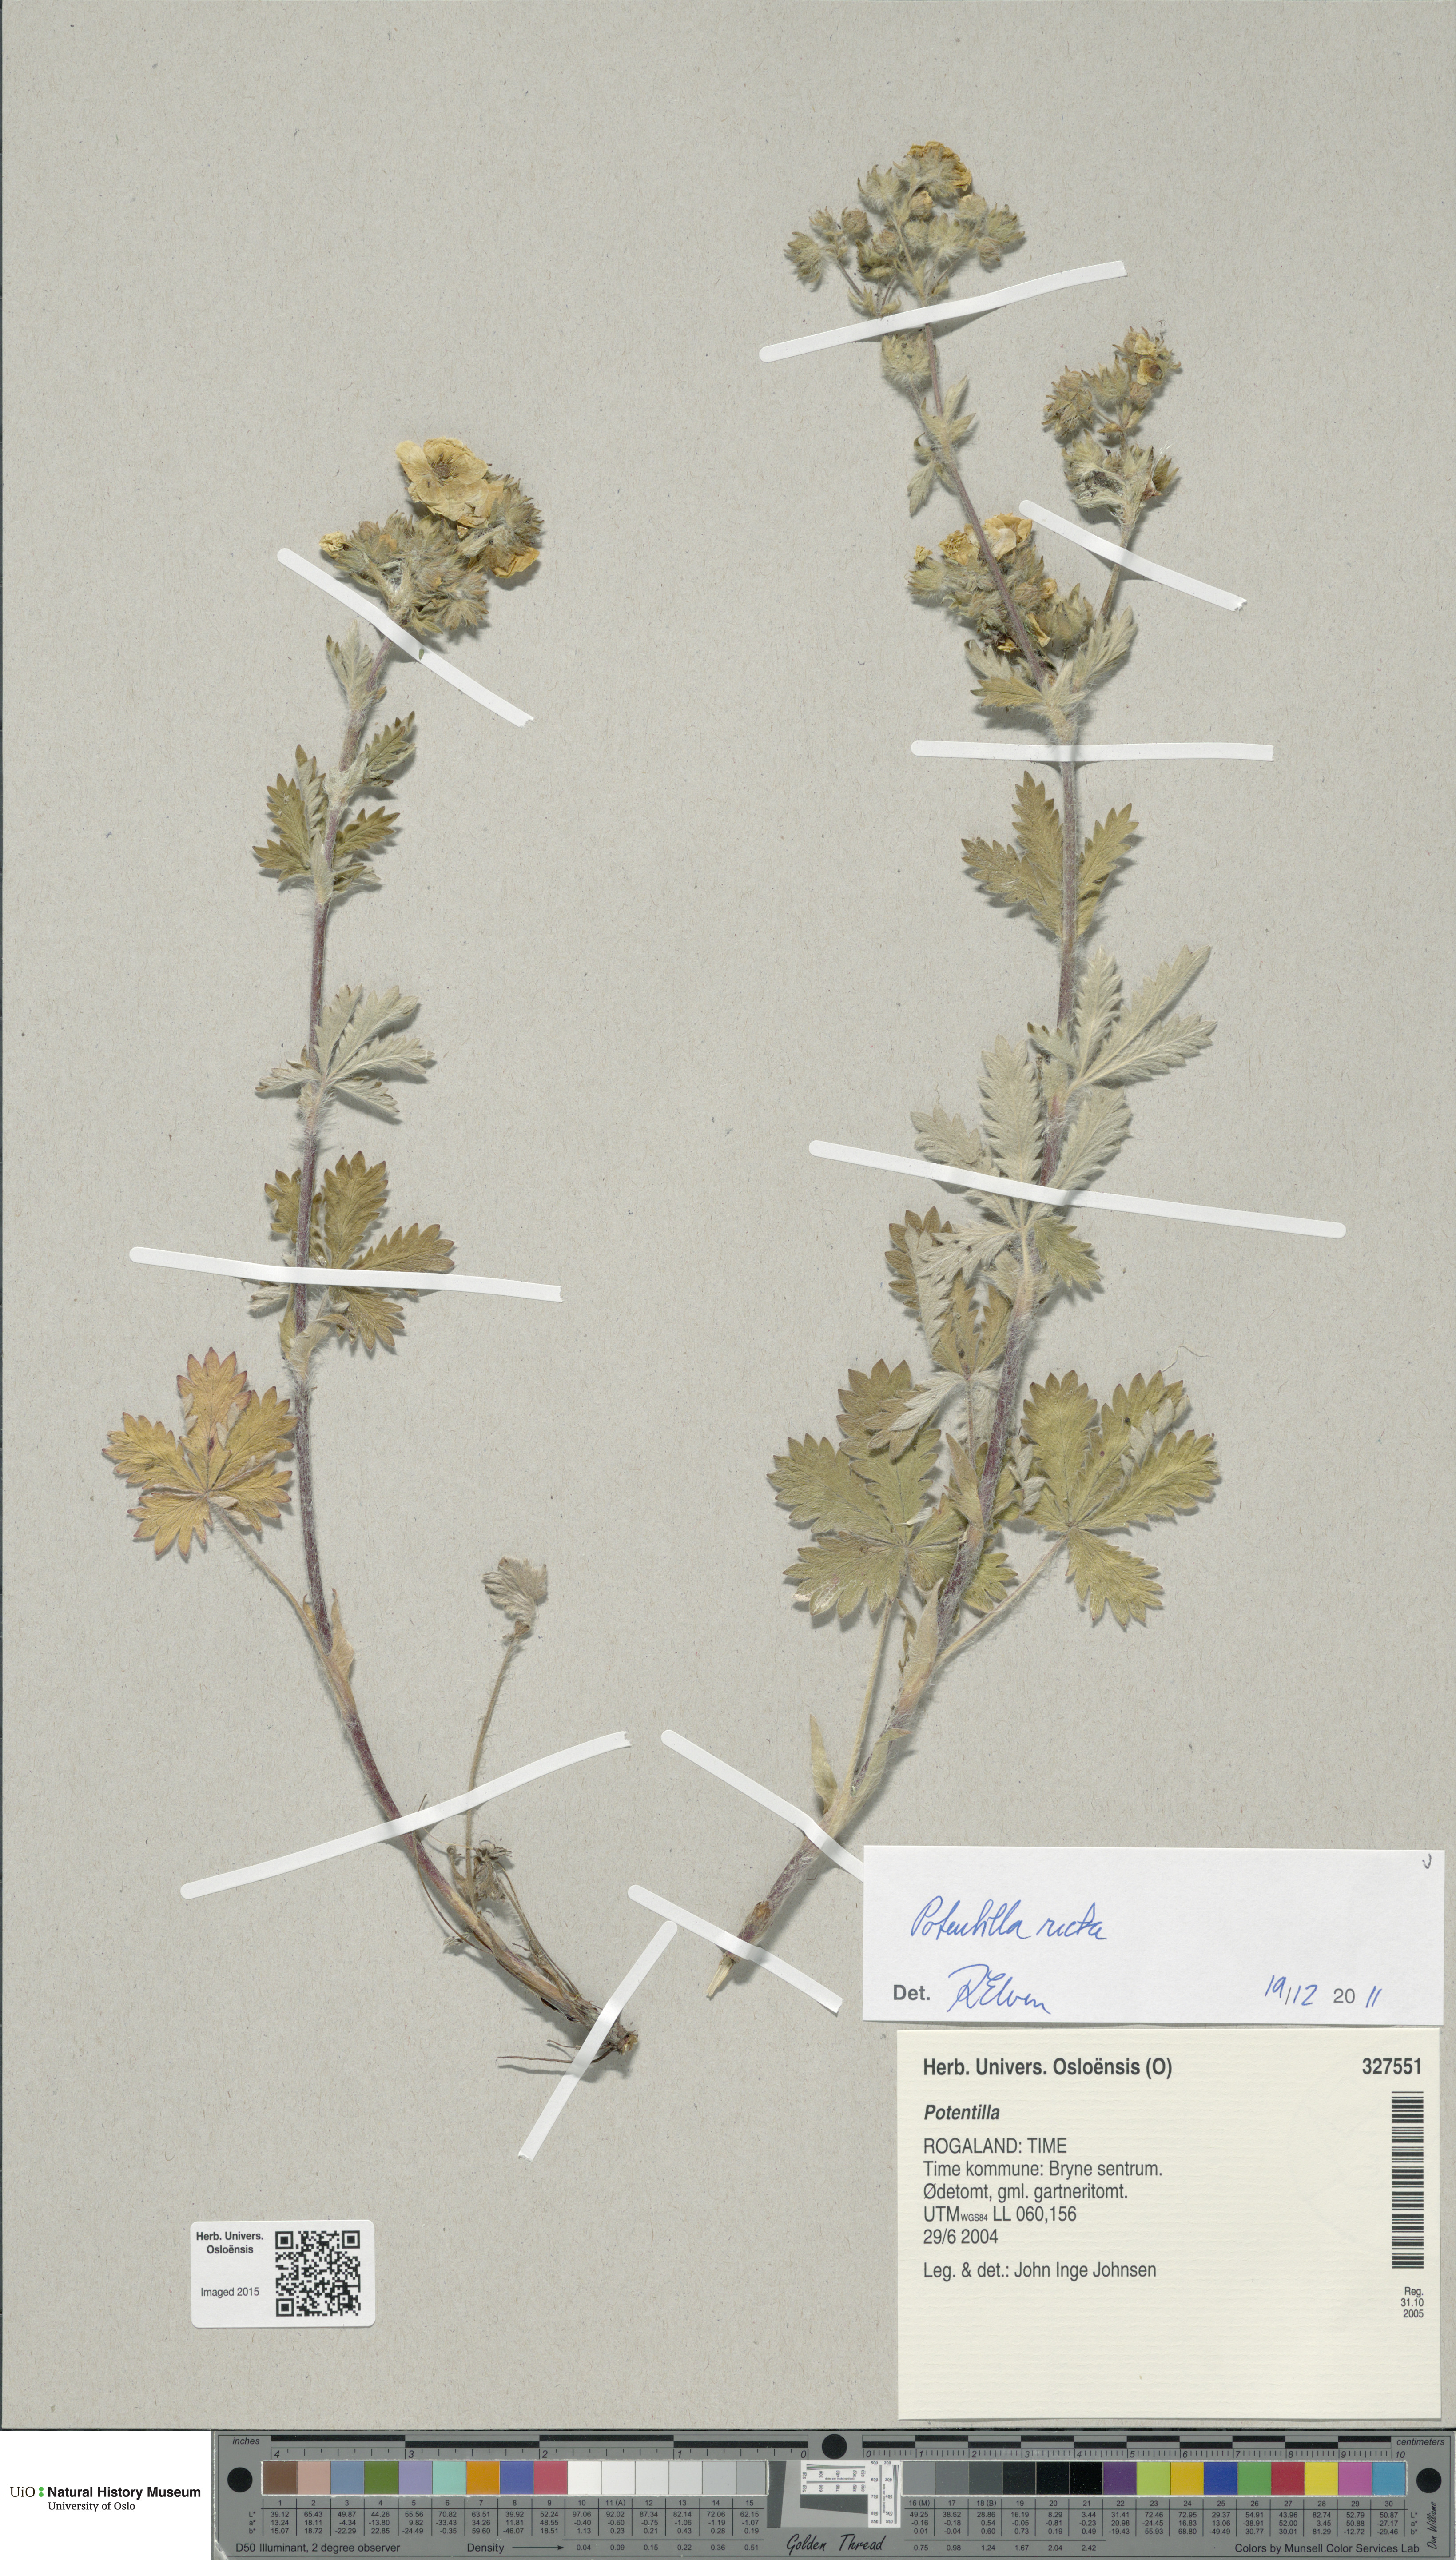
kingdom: Plantae
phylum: Tracheophyta
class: Magnoliopsida
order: Rosales
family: Rosaceae
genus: Potentilla
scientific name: Potentilla recta
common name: Sulphur cinquefoil
